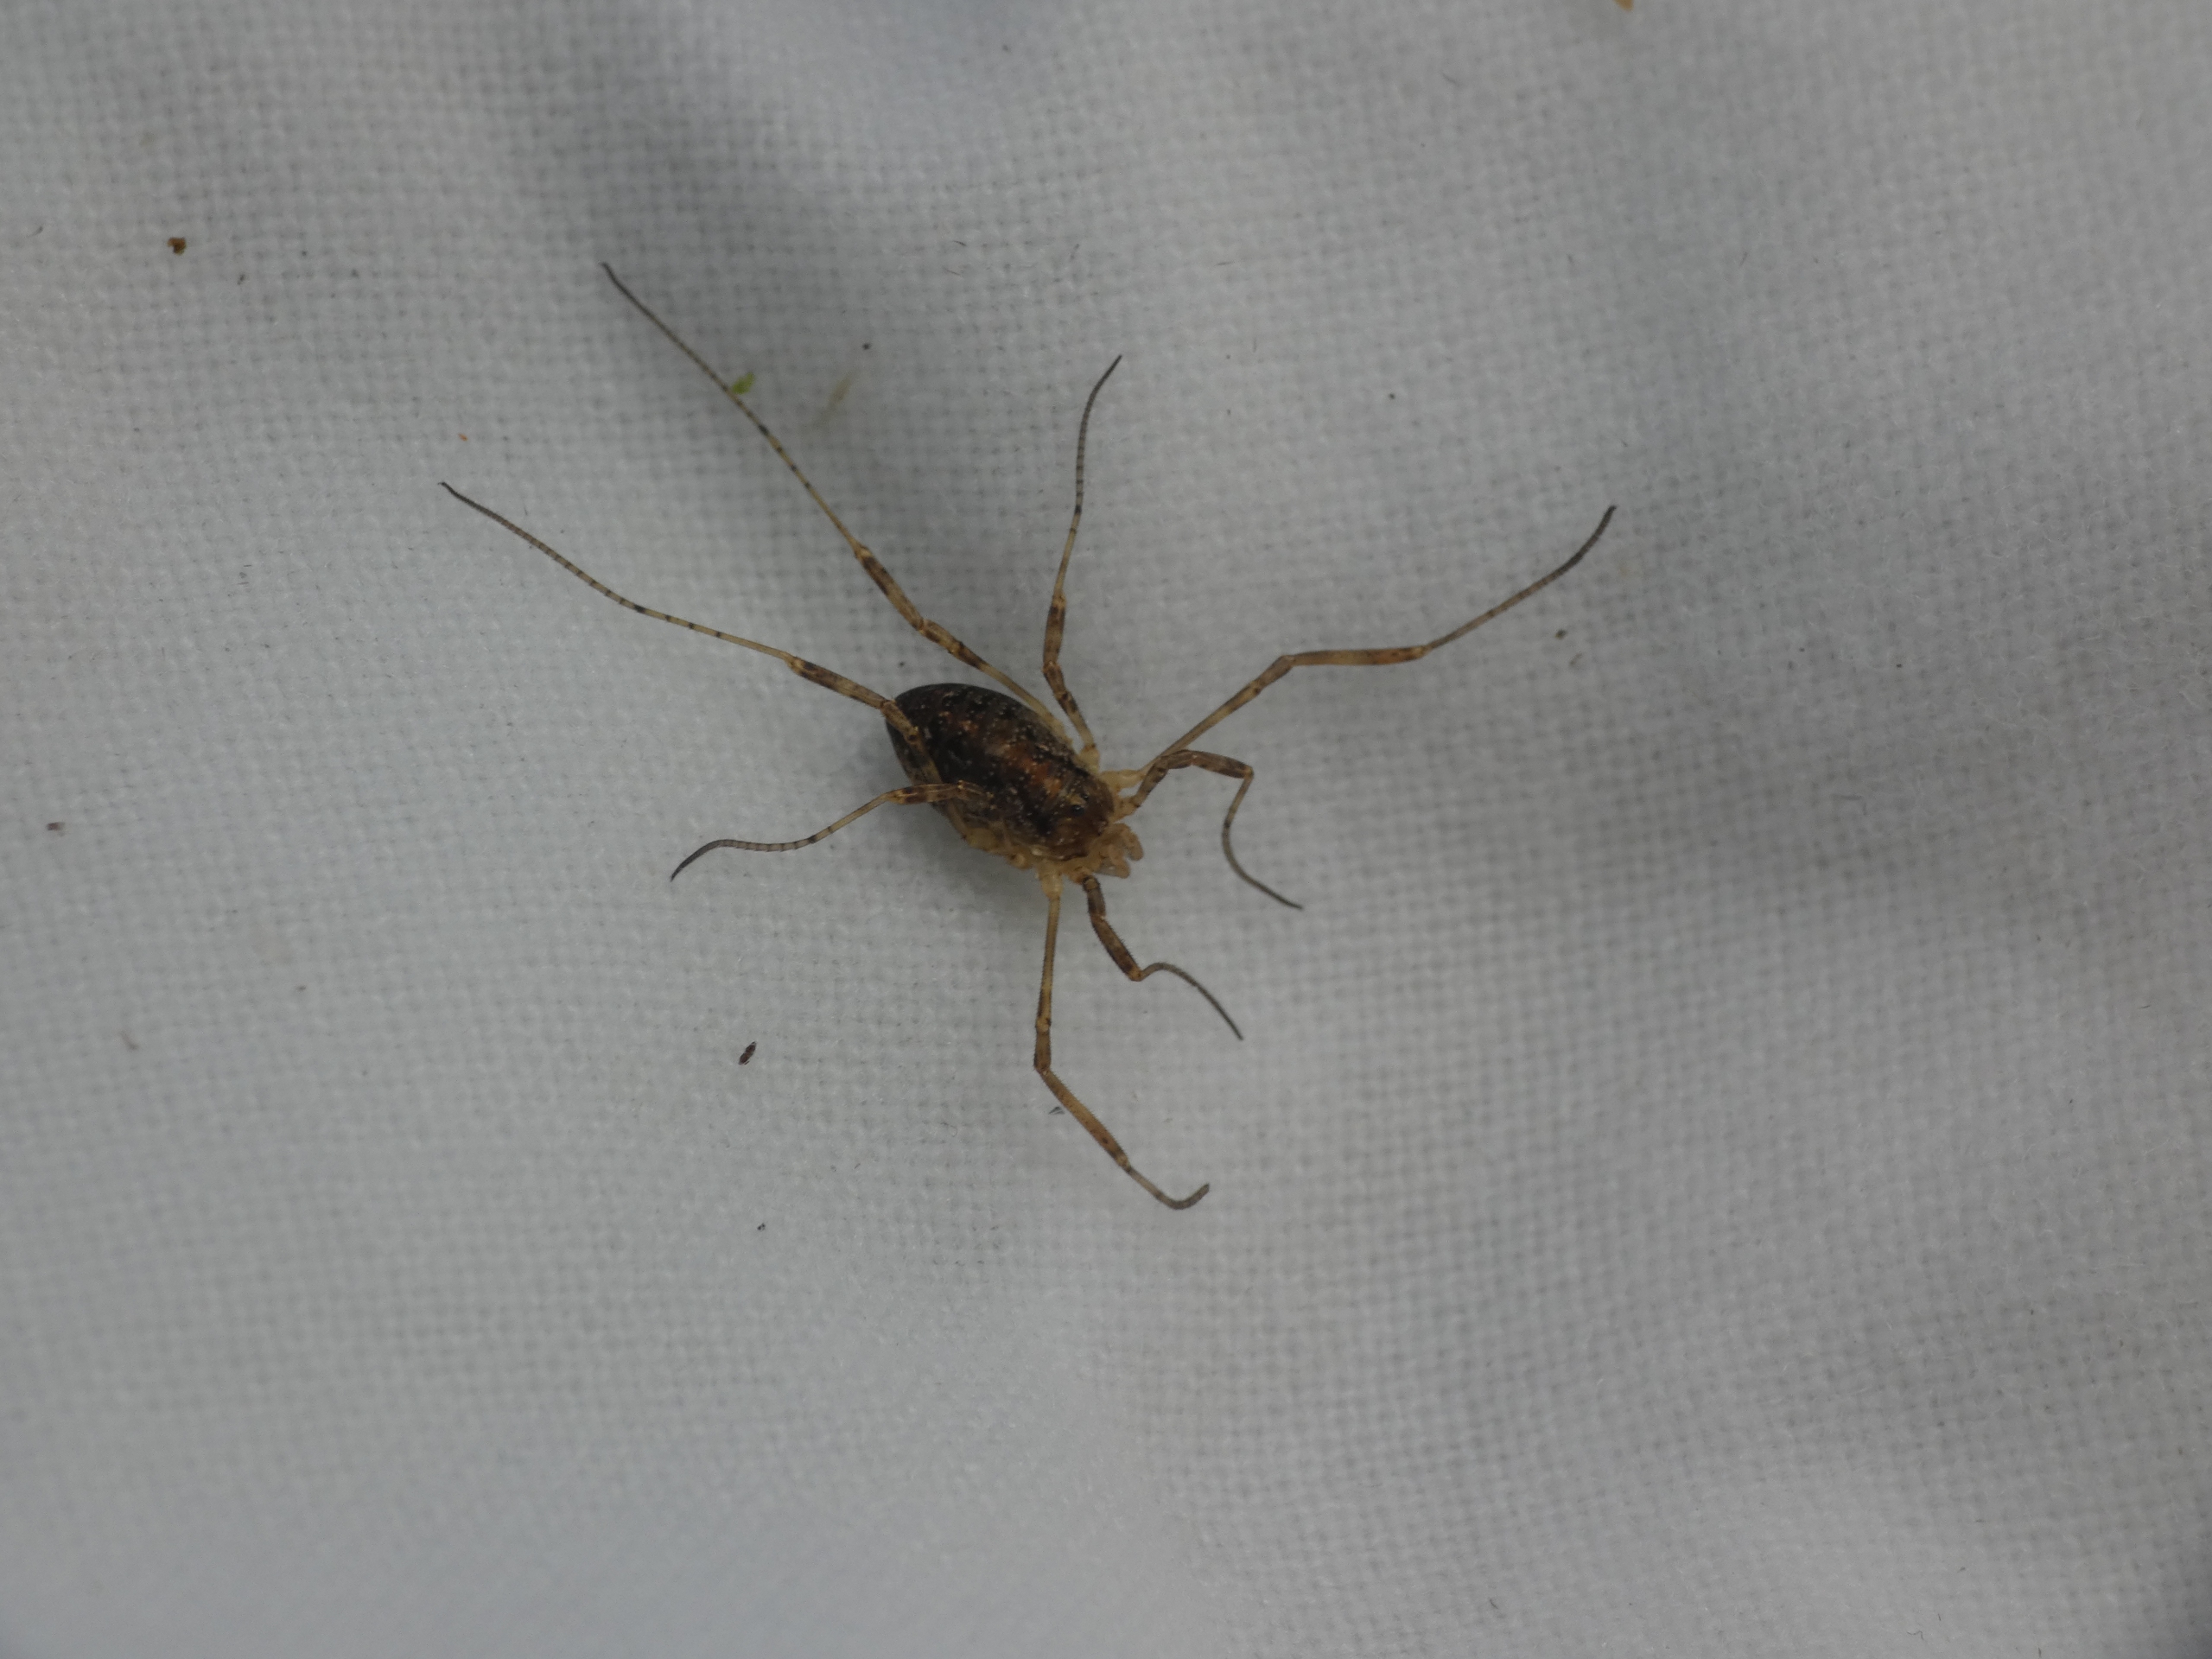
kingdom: Animalia
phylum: Arthropoda
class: Arachnida
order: Opiliones
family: Phalangiidae
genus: Paroligolophus
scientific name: Paroligolophus agrestis
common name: Hedemejer
